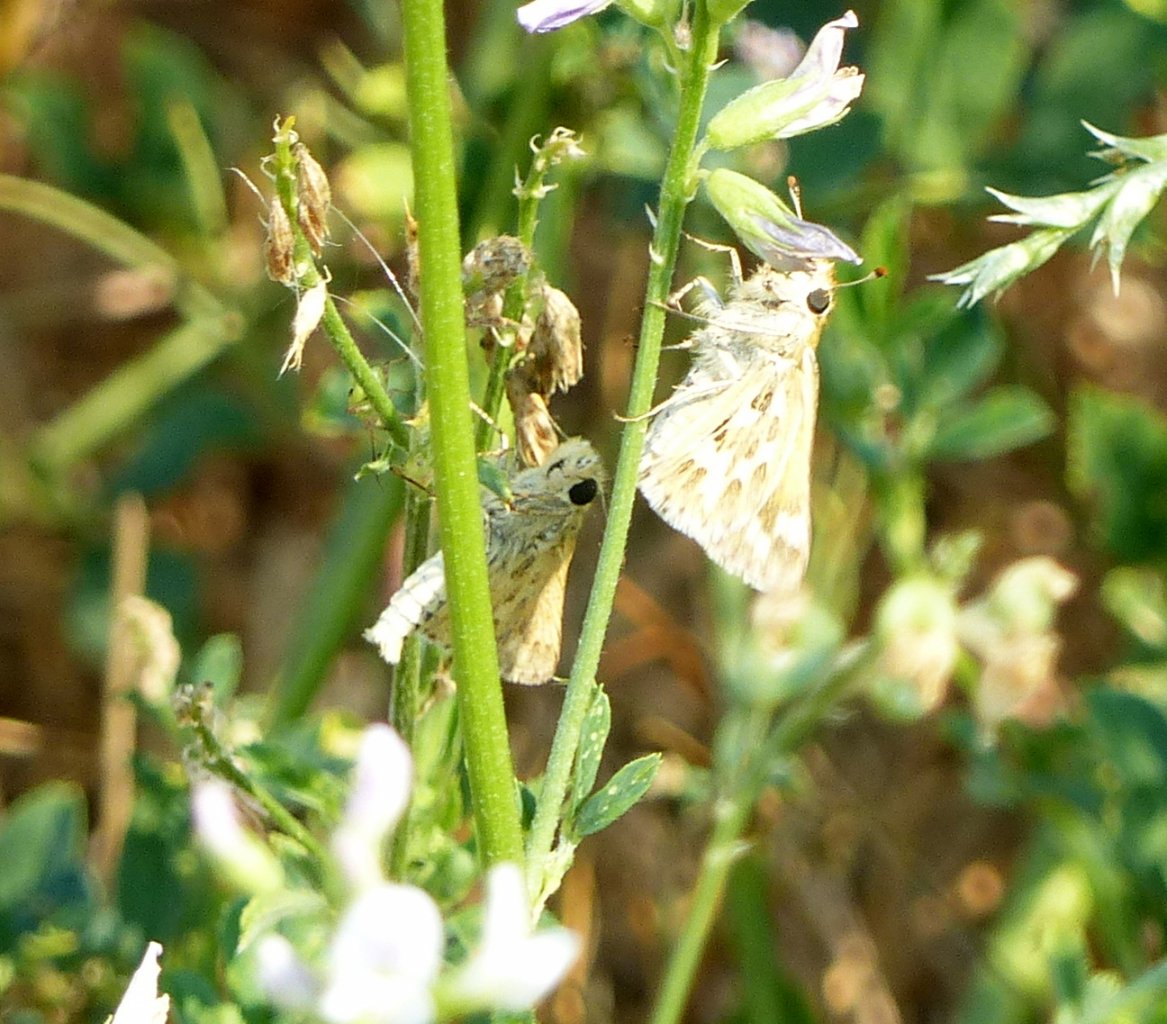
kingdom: Animalia
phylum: Arthropoda
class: Insecta
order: Lepidoptera
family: Hesperiidae
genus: Polites
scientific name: Polites sabuleti
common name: Sandhill Skipper
